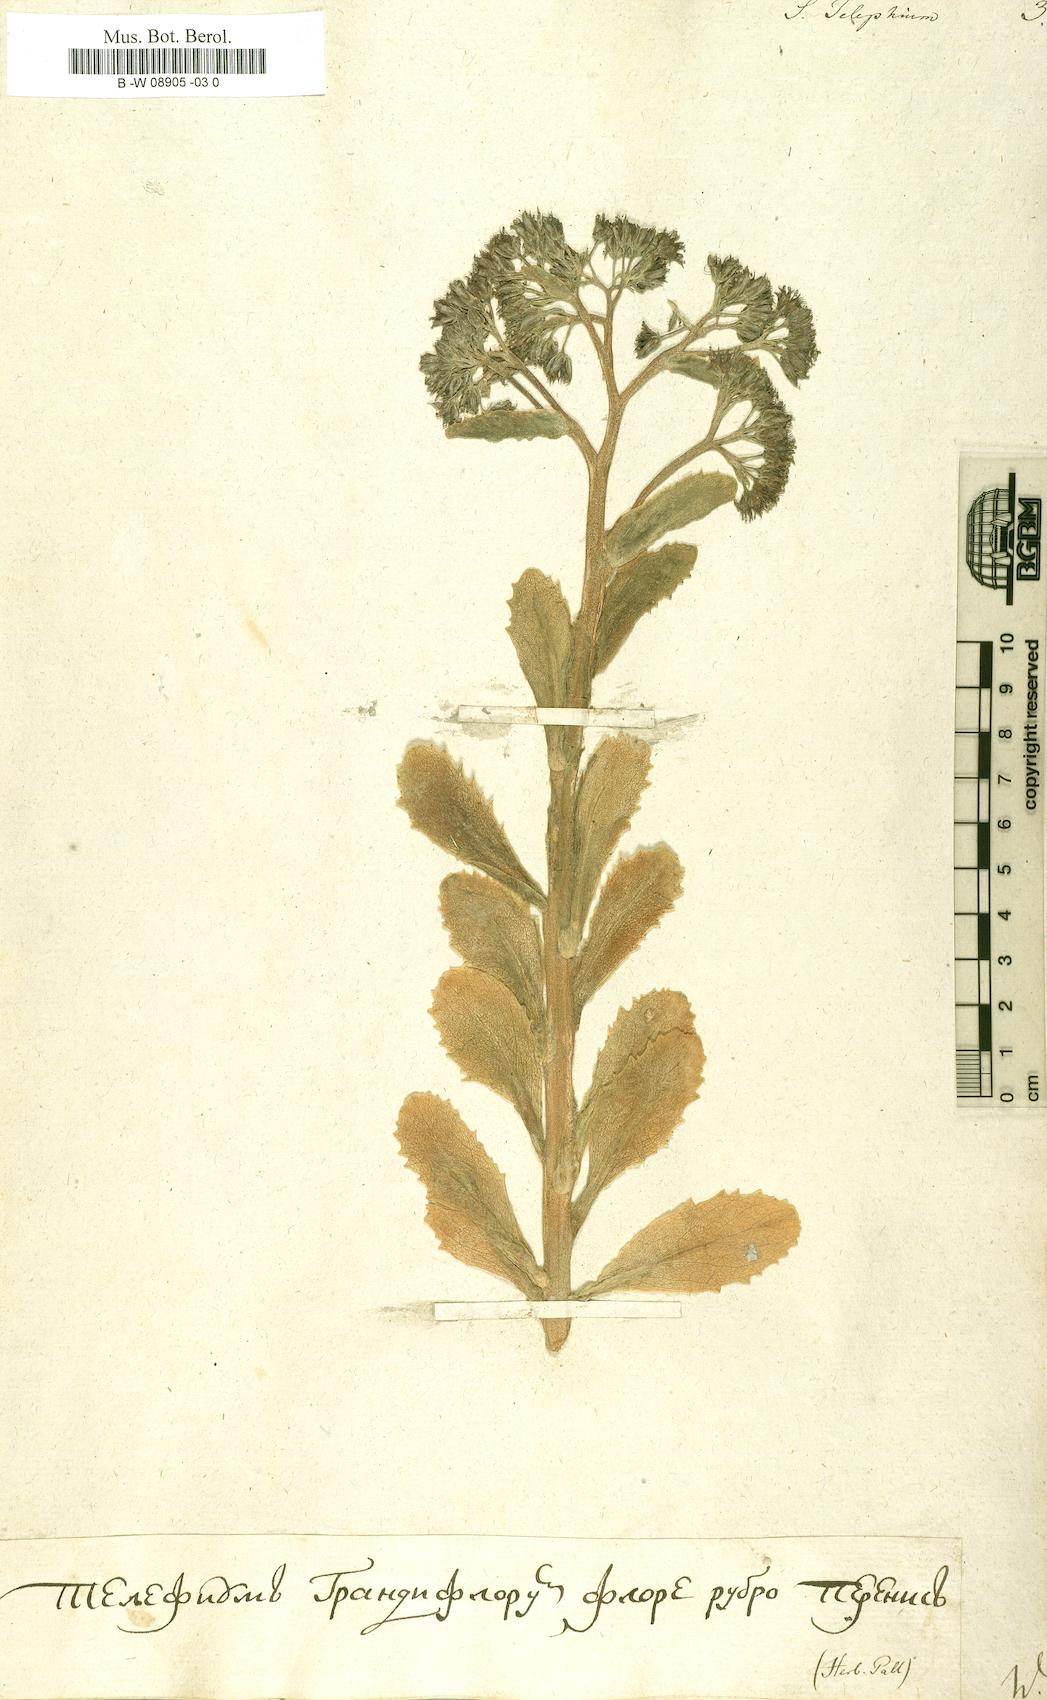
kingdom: Plantae
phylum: Tracheophyta
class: Magnoliopsida
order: Saxifragales
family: Crassulaceae
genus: Hylotelephium
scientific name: Hylotelephium telephium
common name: Live-forever
